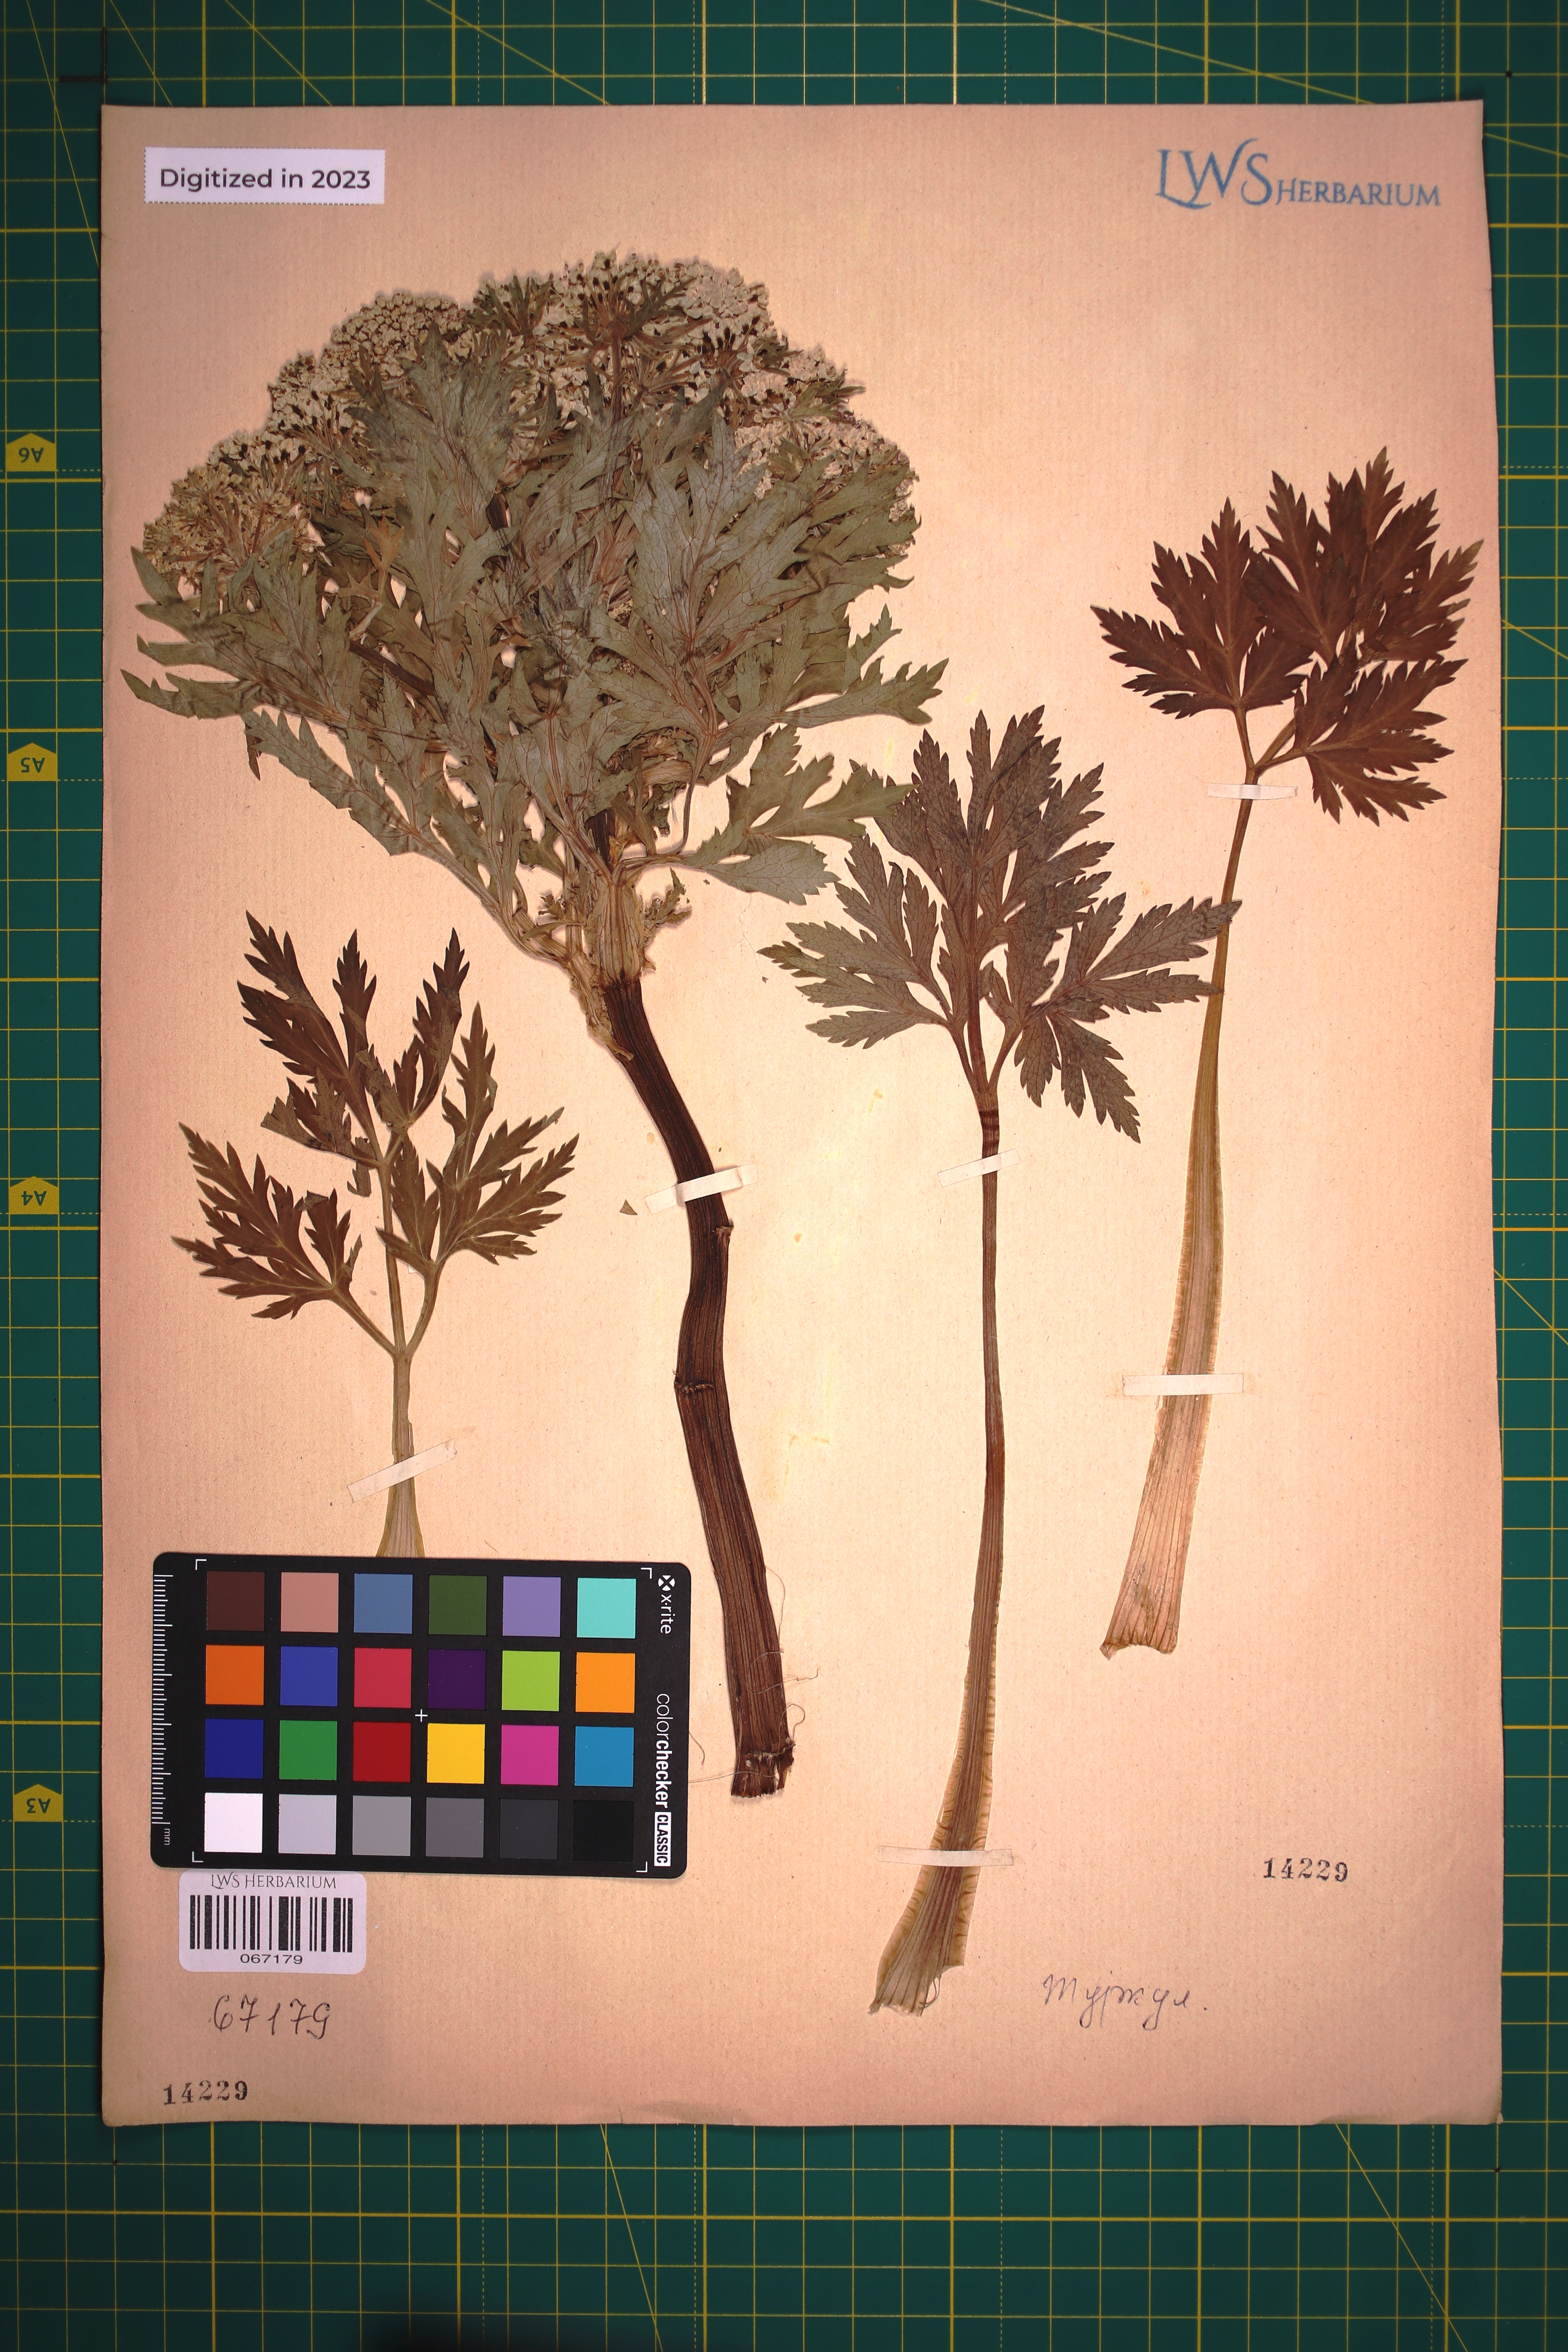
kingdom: Plantae
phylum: Tracheophyta
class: Magnoliopsida
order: Apiales
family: Apiaceae
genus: Pleurospermum
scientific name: Pleurospermum austriacum
